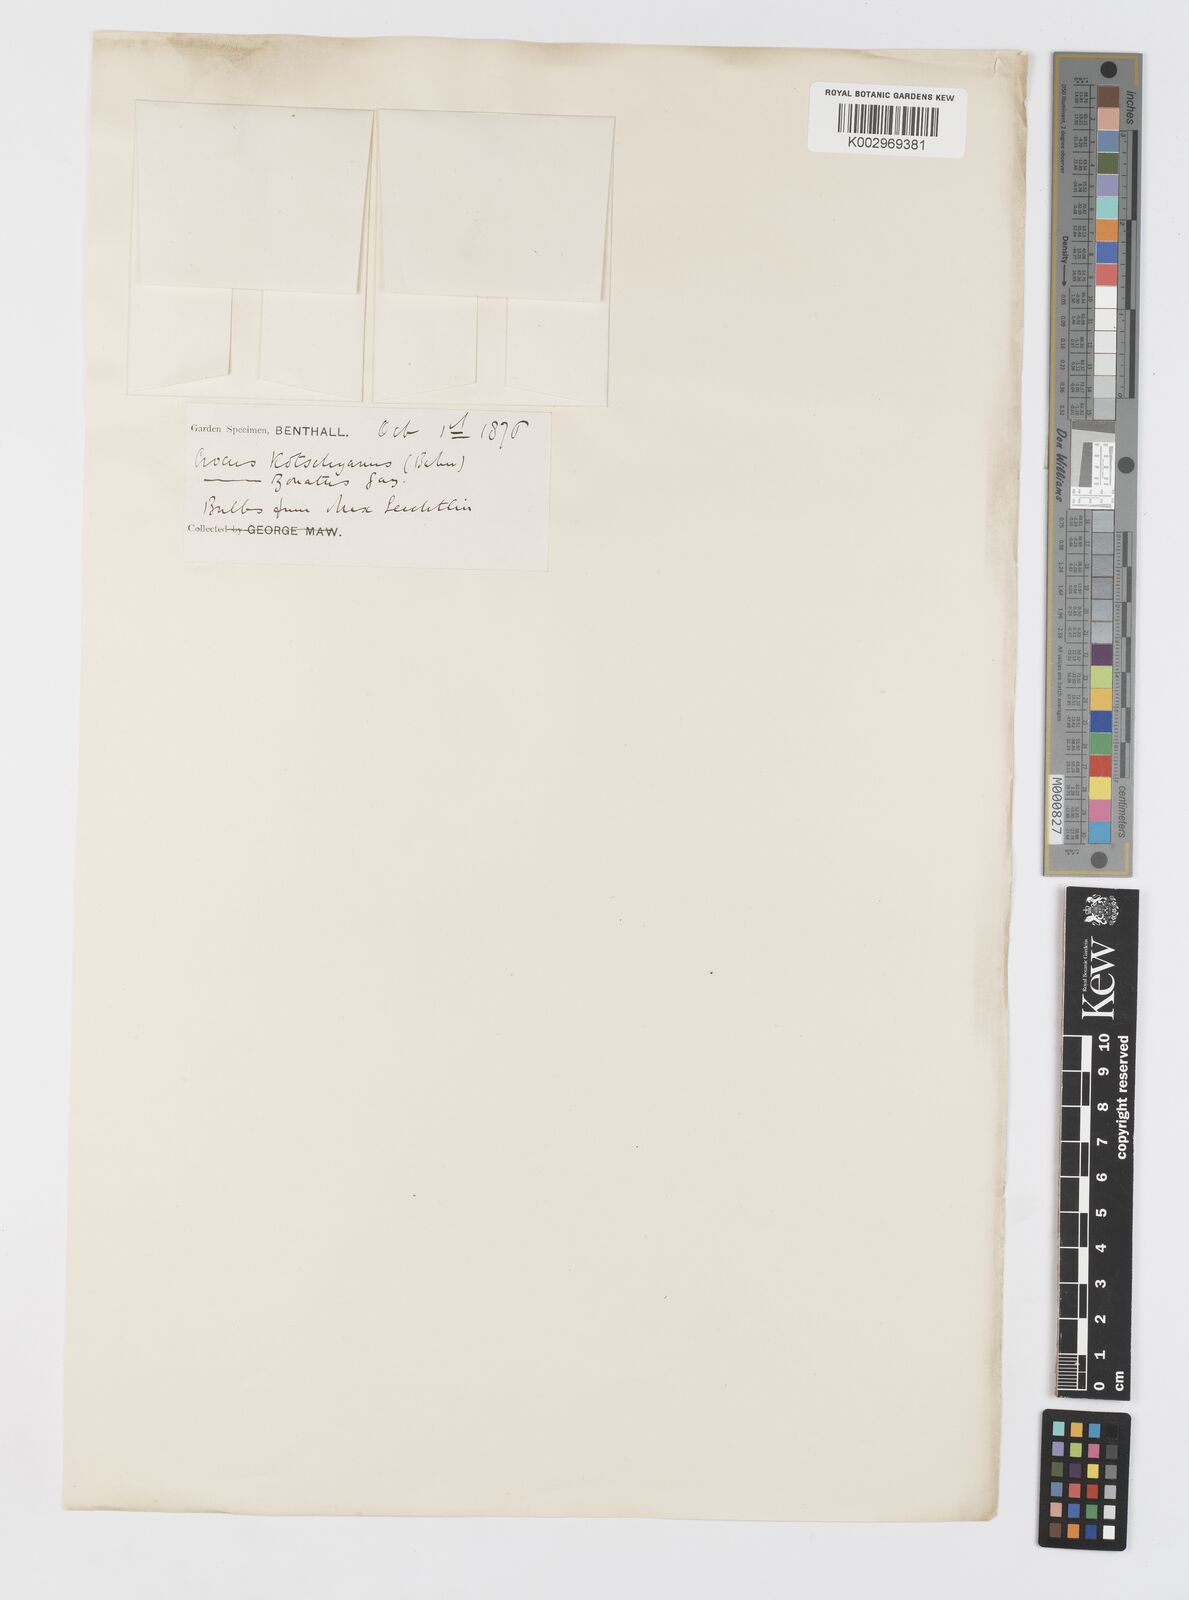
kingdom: Plantae
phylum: Tracheophyta
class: Liliopsida
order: Asparagales
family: Iridaceae
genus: Crocus
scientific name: Crocus kotschyanus
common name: Kotschy's crocus
